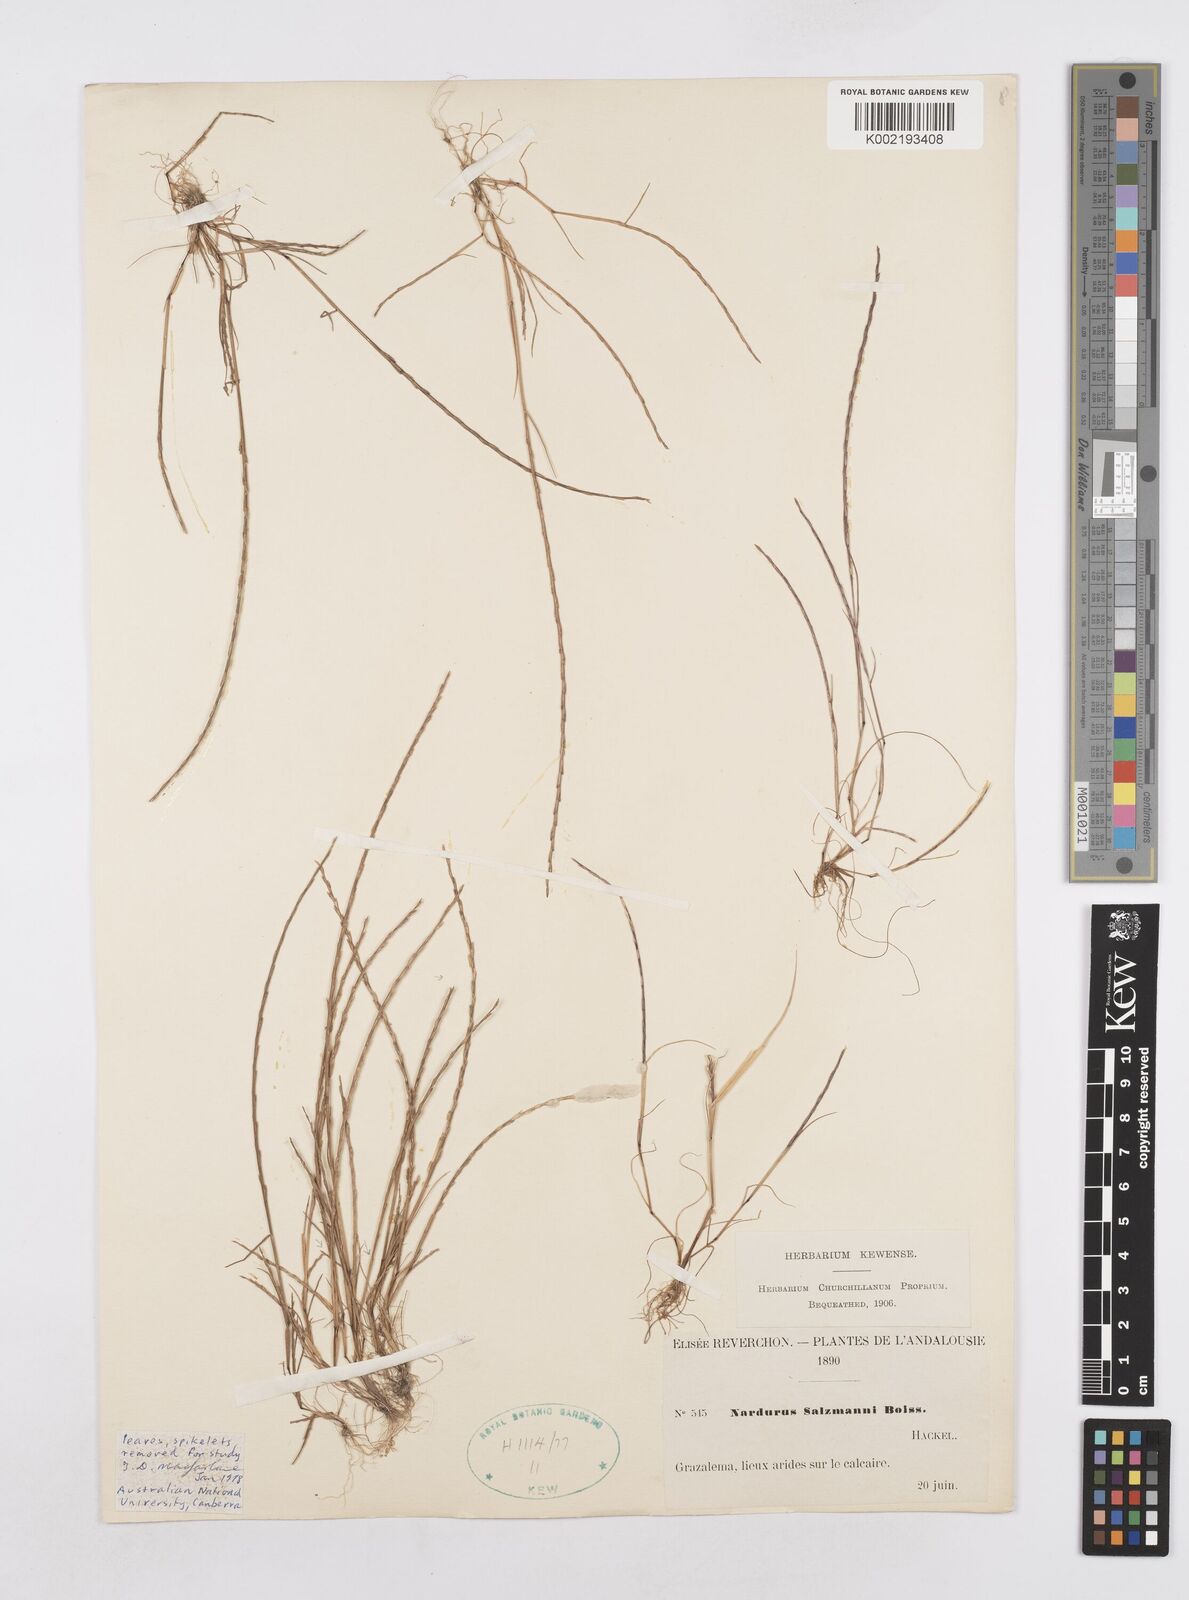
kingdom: Plantae
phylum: Tracheophyta
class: Liliopsida
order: Poales
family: Poaceae
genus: Festuca
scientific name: Festuca salzmannii
